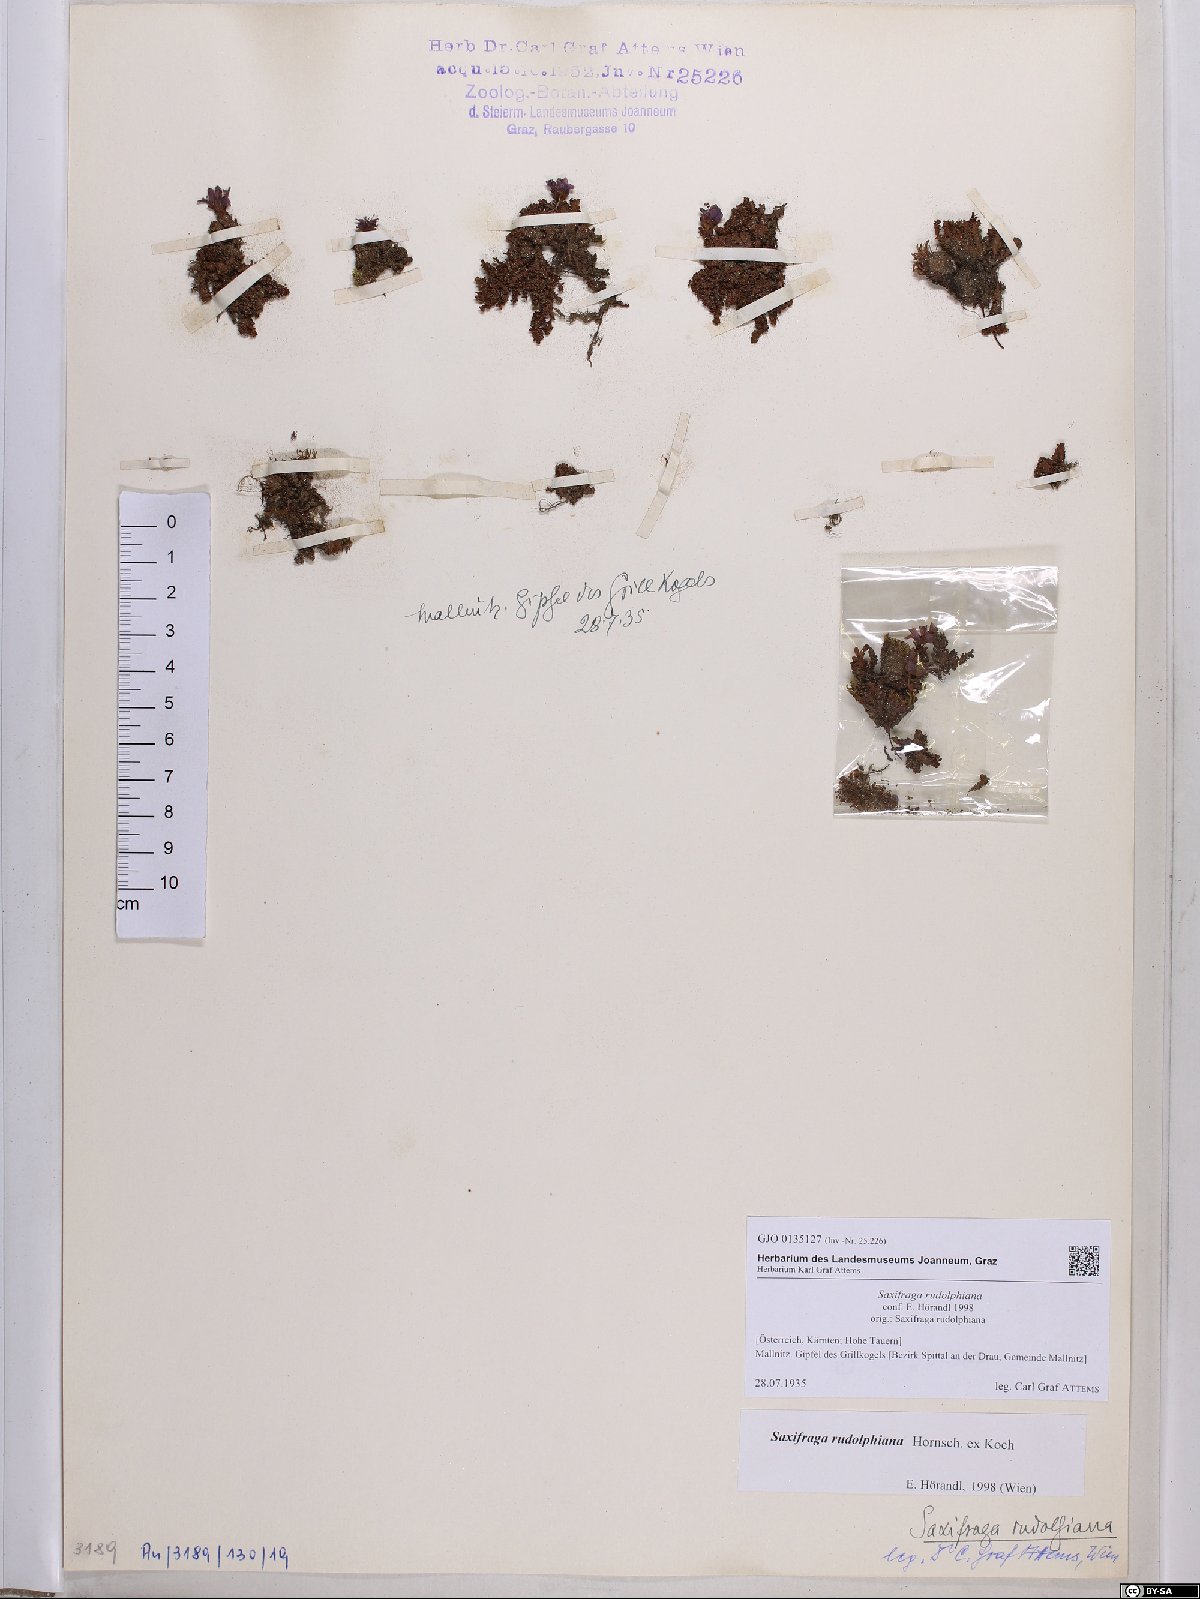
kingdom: Plantae
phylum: Tracheophyta
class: Magnoliopsida
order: Saxifragales
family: Saxifragaceae
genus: Saxifraga
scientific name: Saxifraga oppositifolia
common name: Purple saxifrage
